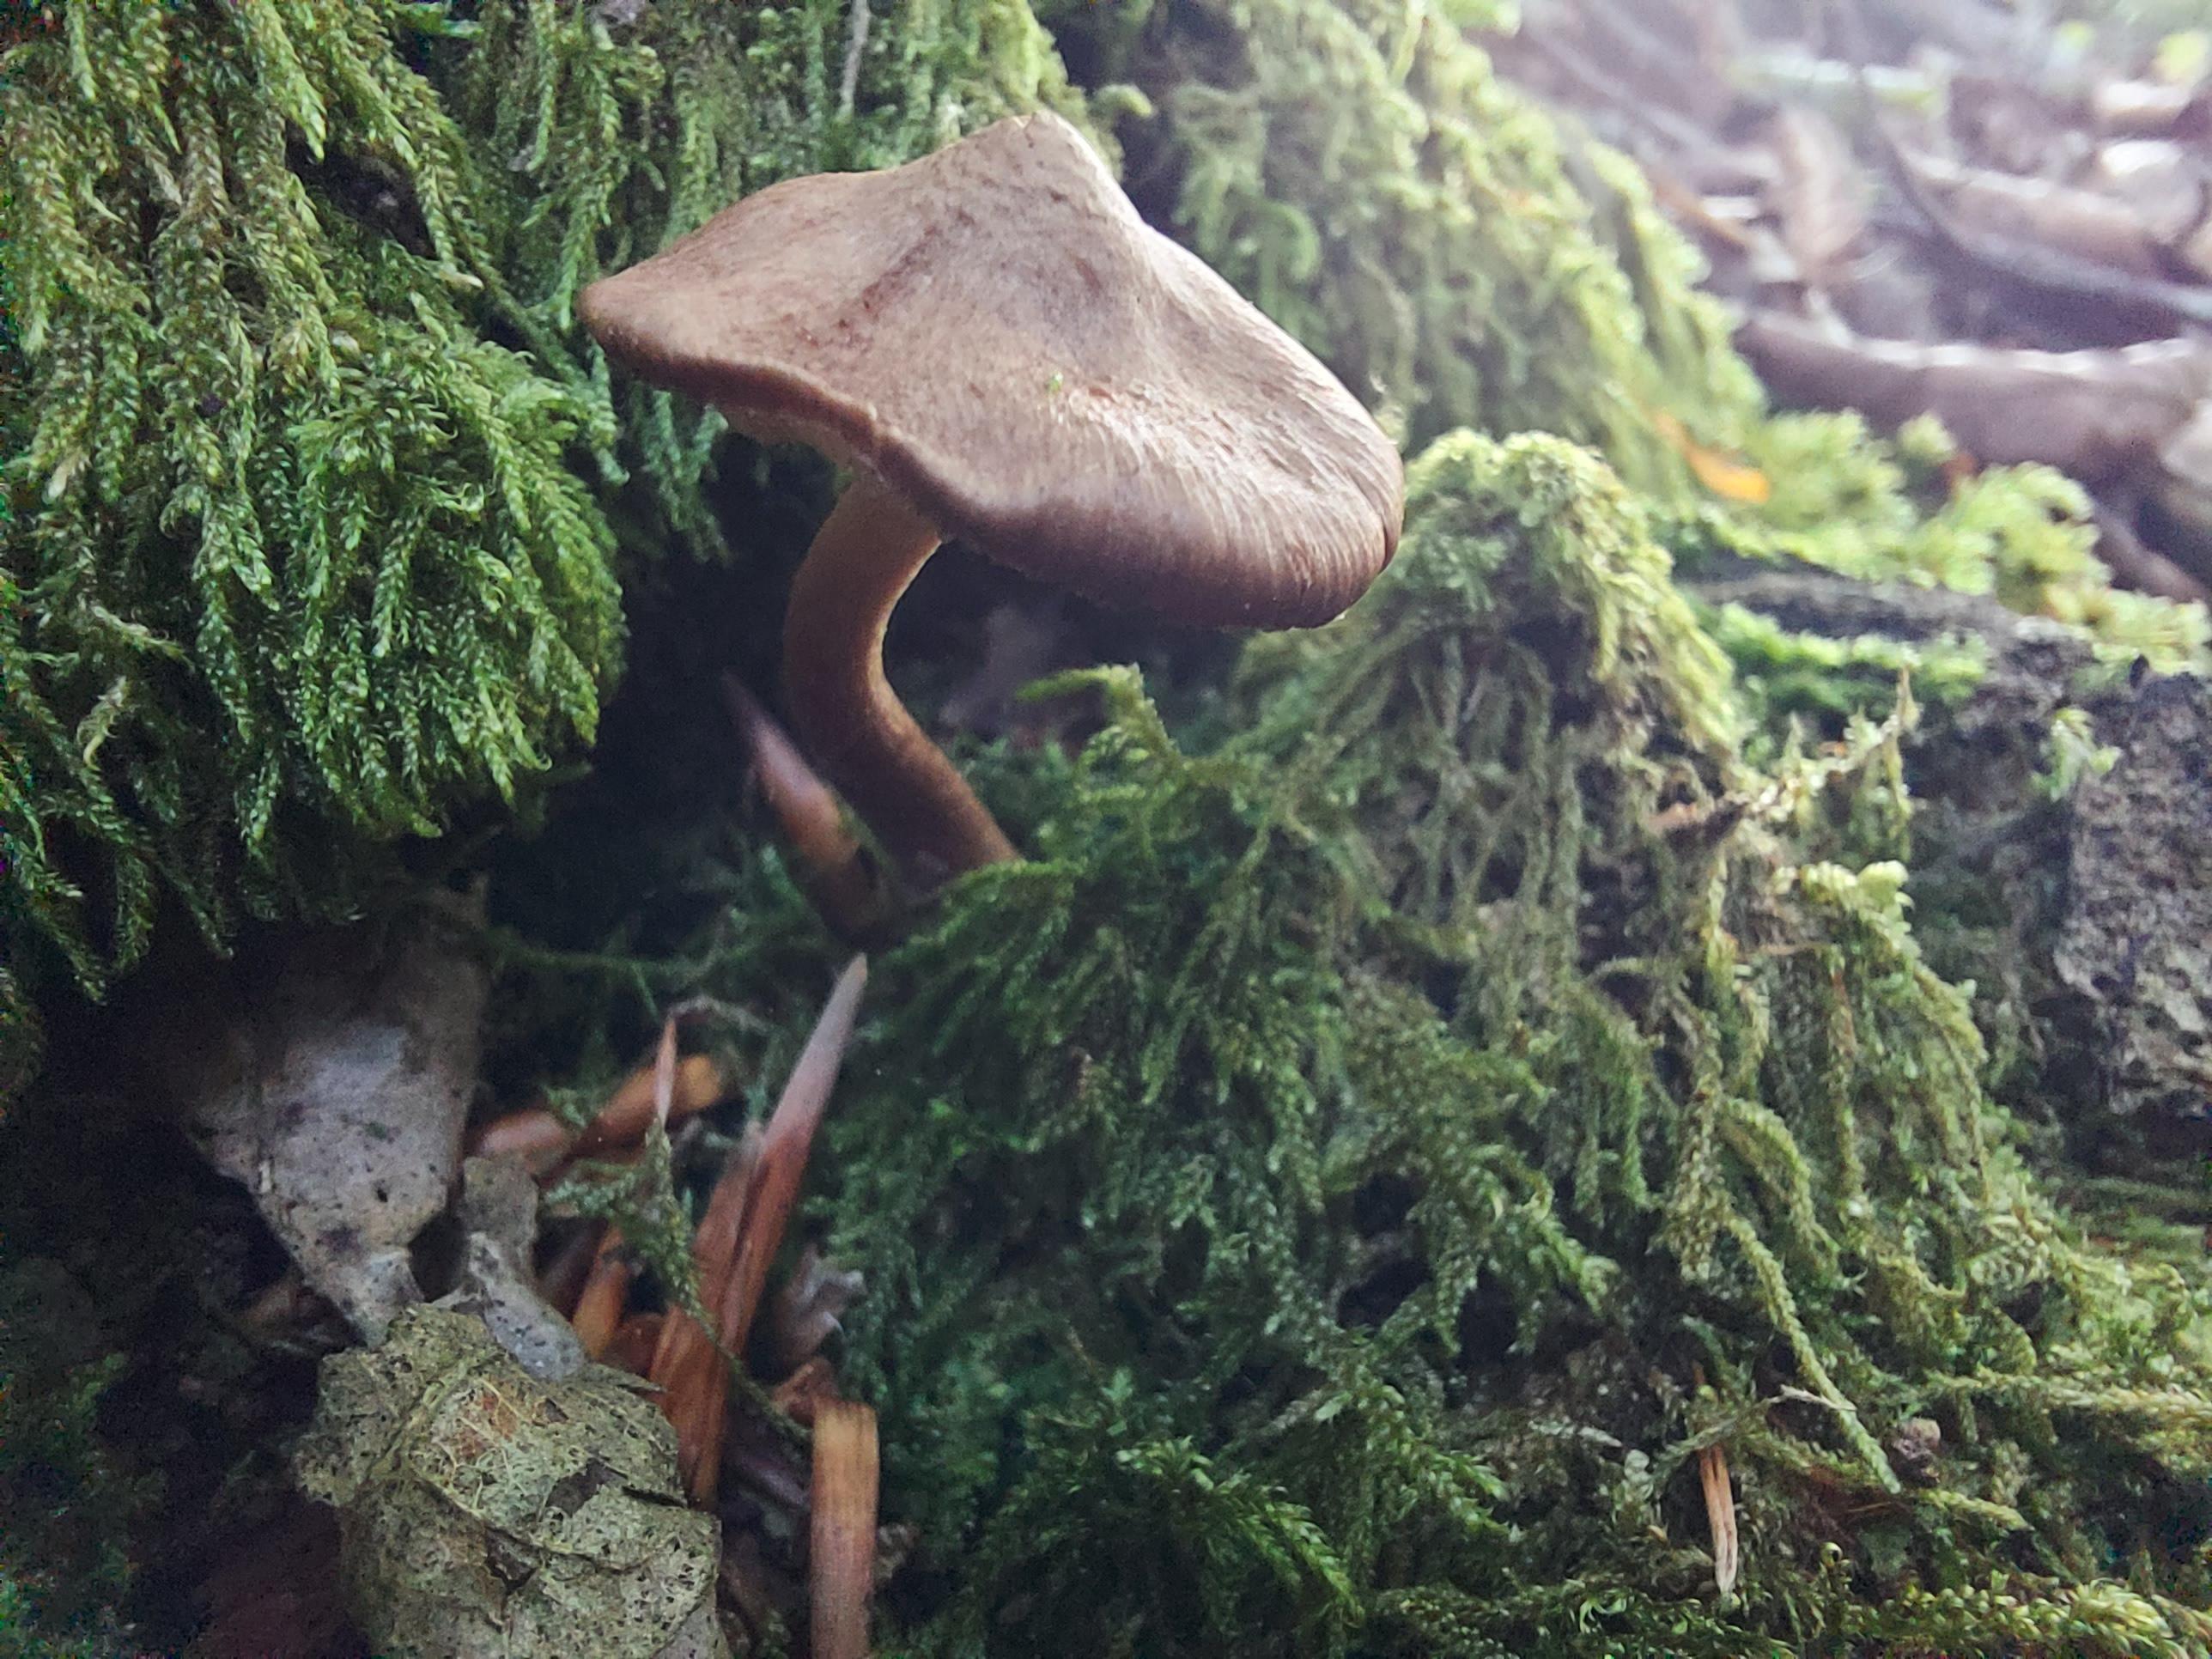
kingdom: Fungi
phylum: Basidiomycota
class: Agaricomycetes
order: Agaricales
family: Inocybaceae
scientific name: Inocybaceae
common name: trævlhatfamilien
